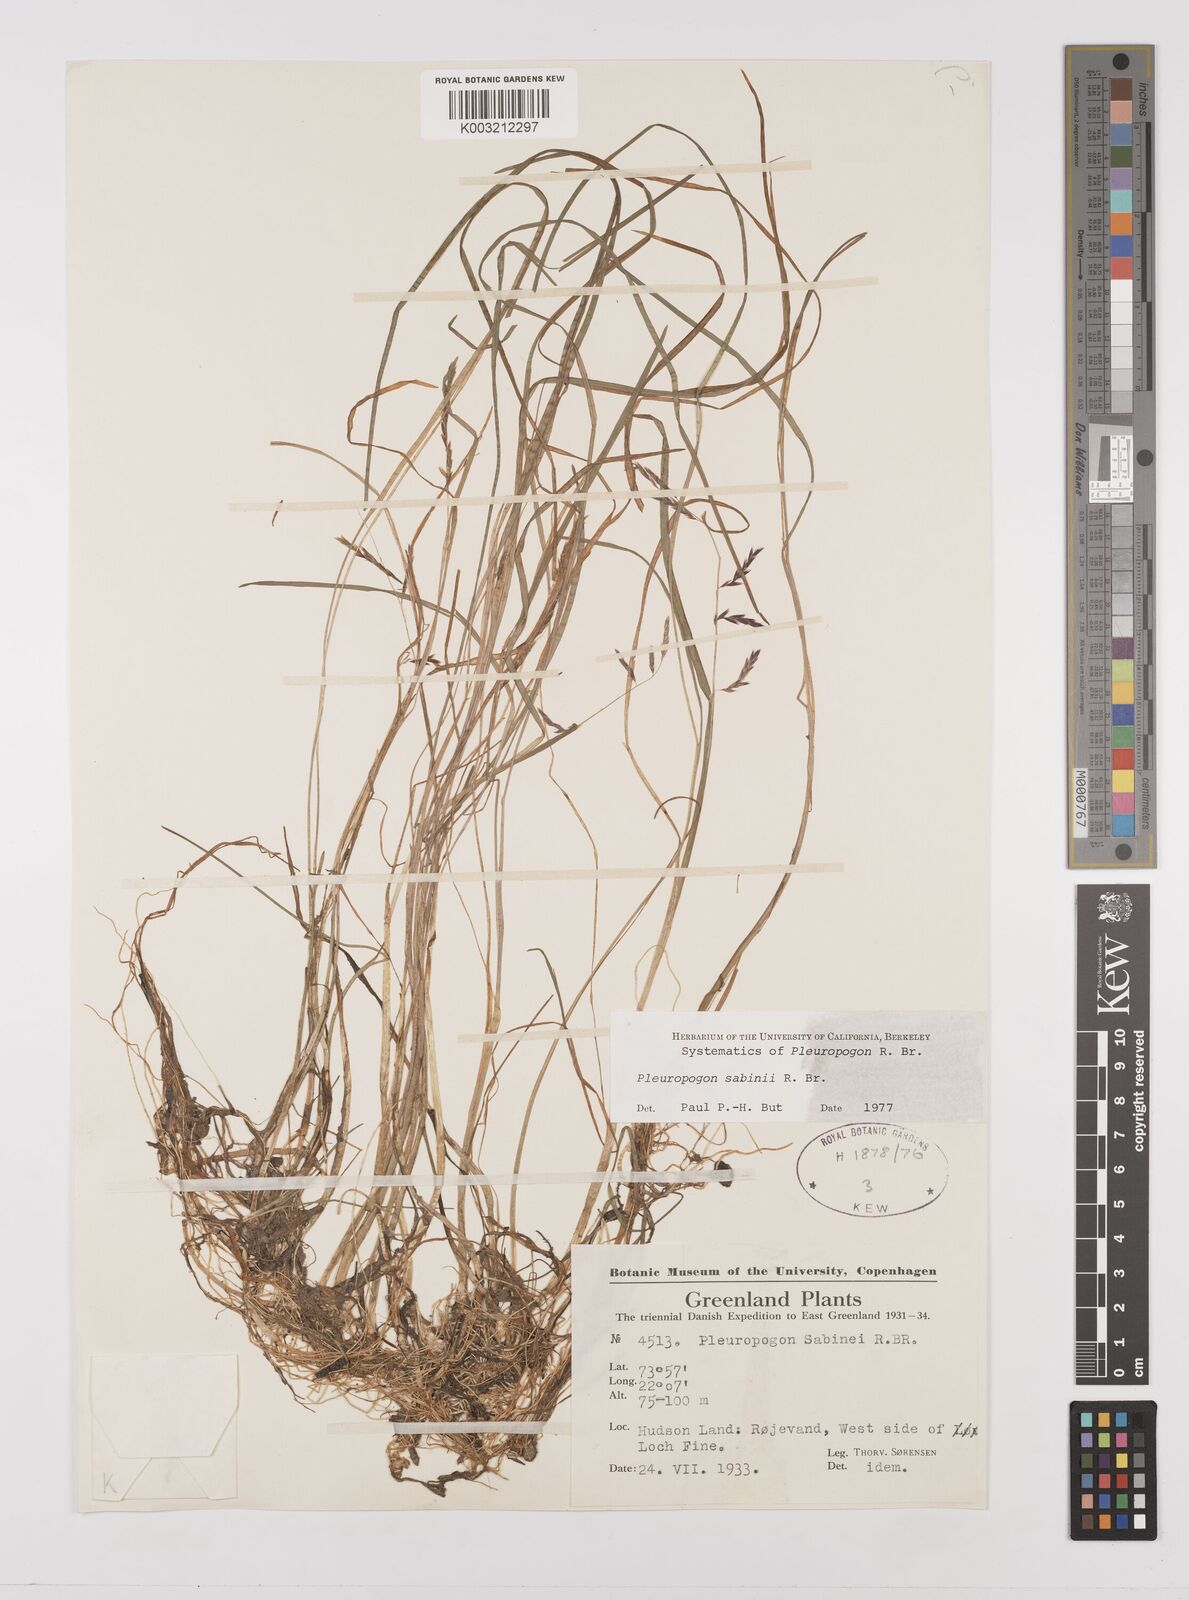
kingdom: Plantae
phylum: Tracheophyta
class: Liliopsida
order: Poales
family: Poaceae
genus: Pleuropogon
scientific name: Pleuropogon sabinei
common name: Sabine's false semaphoregrass
